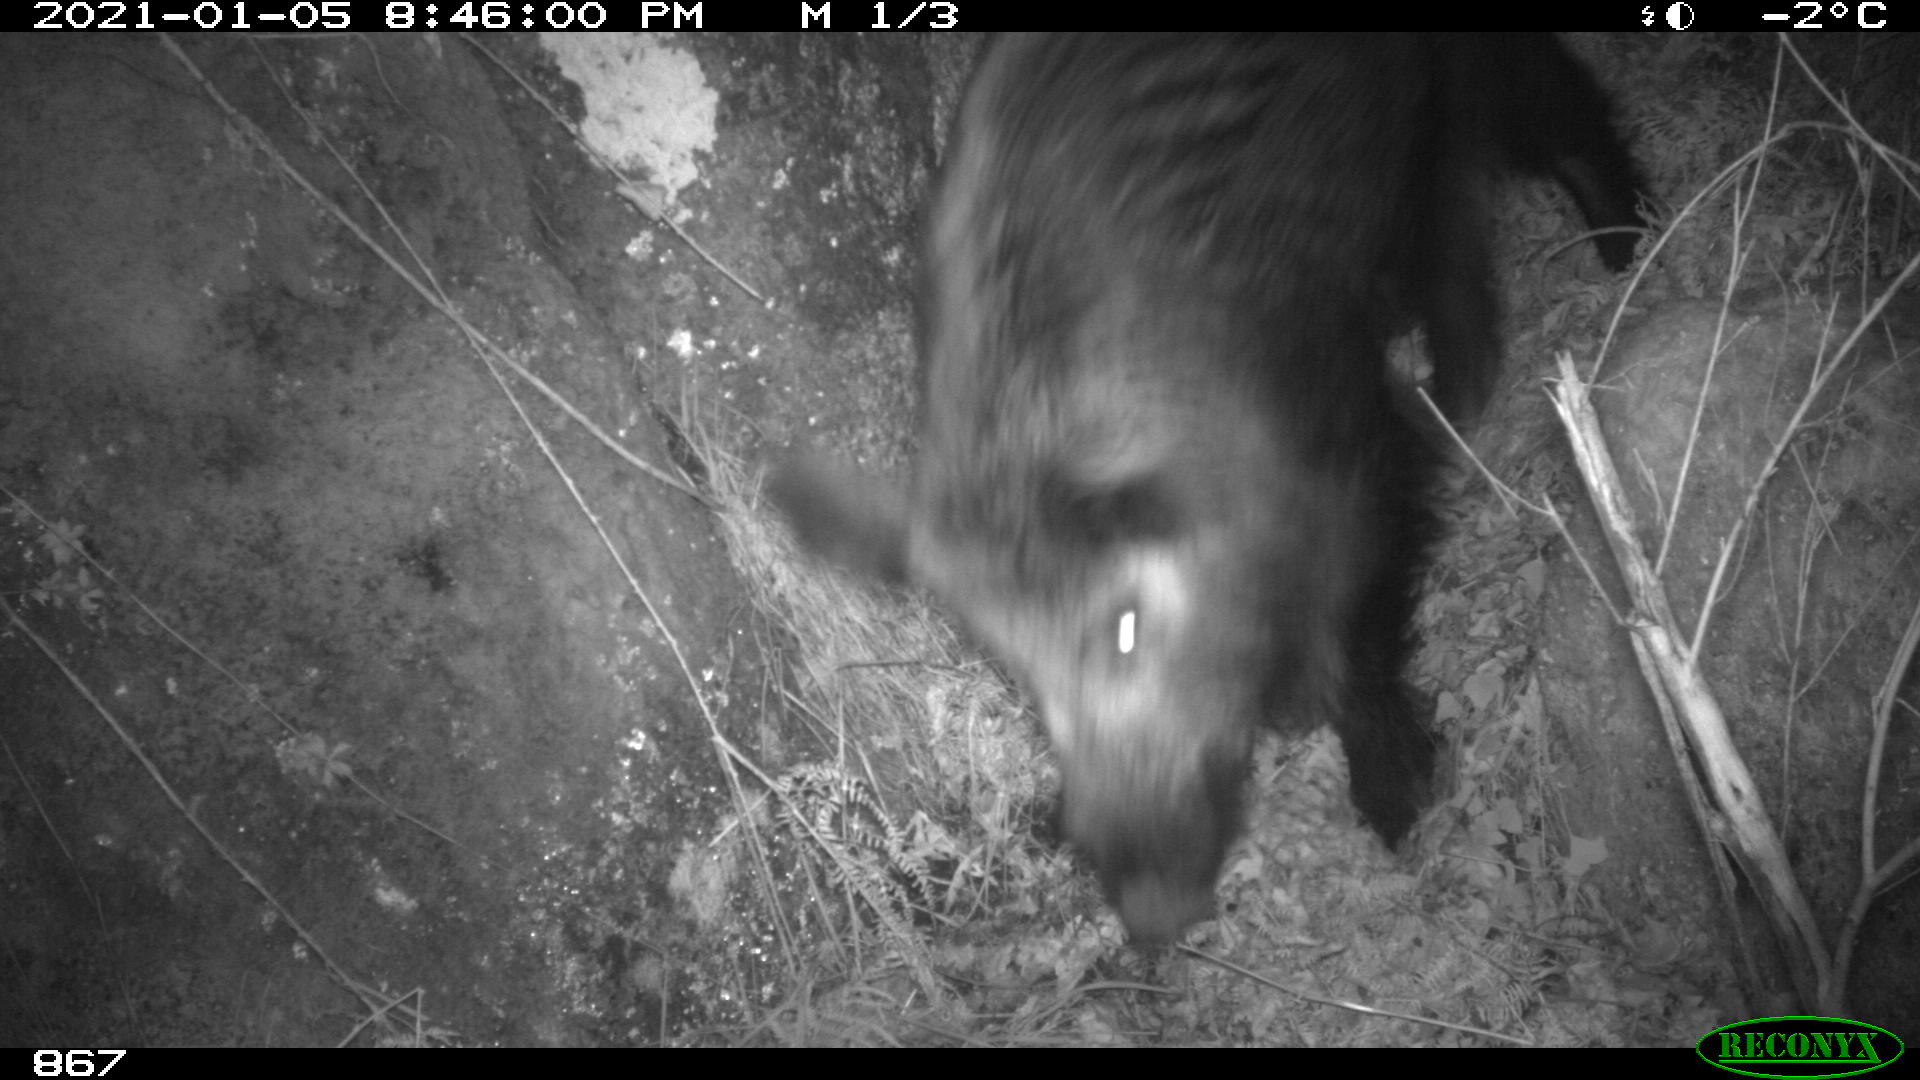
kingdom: Animalia
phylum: Chordata
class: Mammalia
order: Artiodactyla
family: Cervidae
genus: Capreolus
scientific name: Capreolus capreolus
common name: Western roe deer
